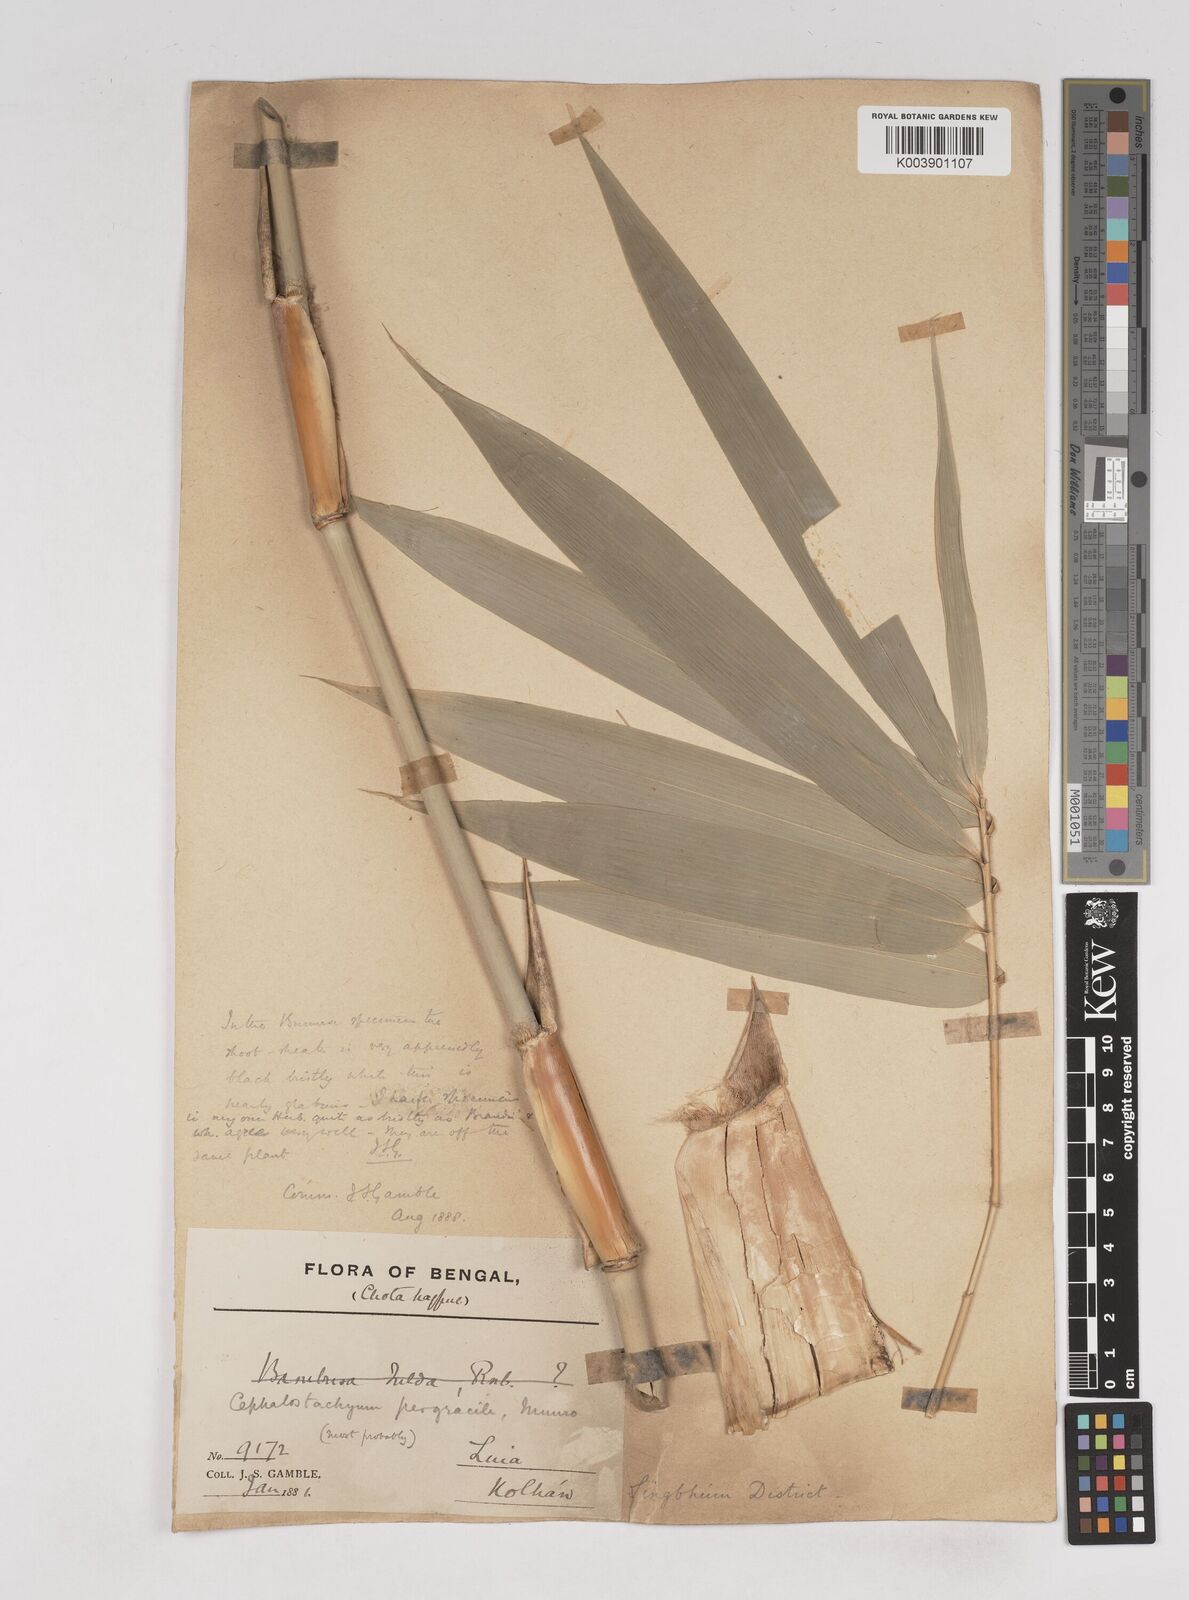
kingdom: Plantae
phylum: Tracheophyta
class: Liliopsida
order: Poales
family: Poaceae
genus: Schizostachyum
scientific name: Schizostachyum pergracile
